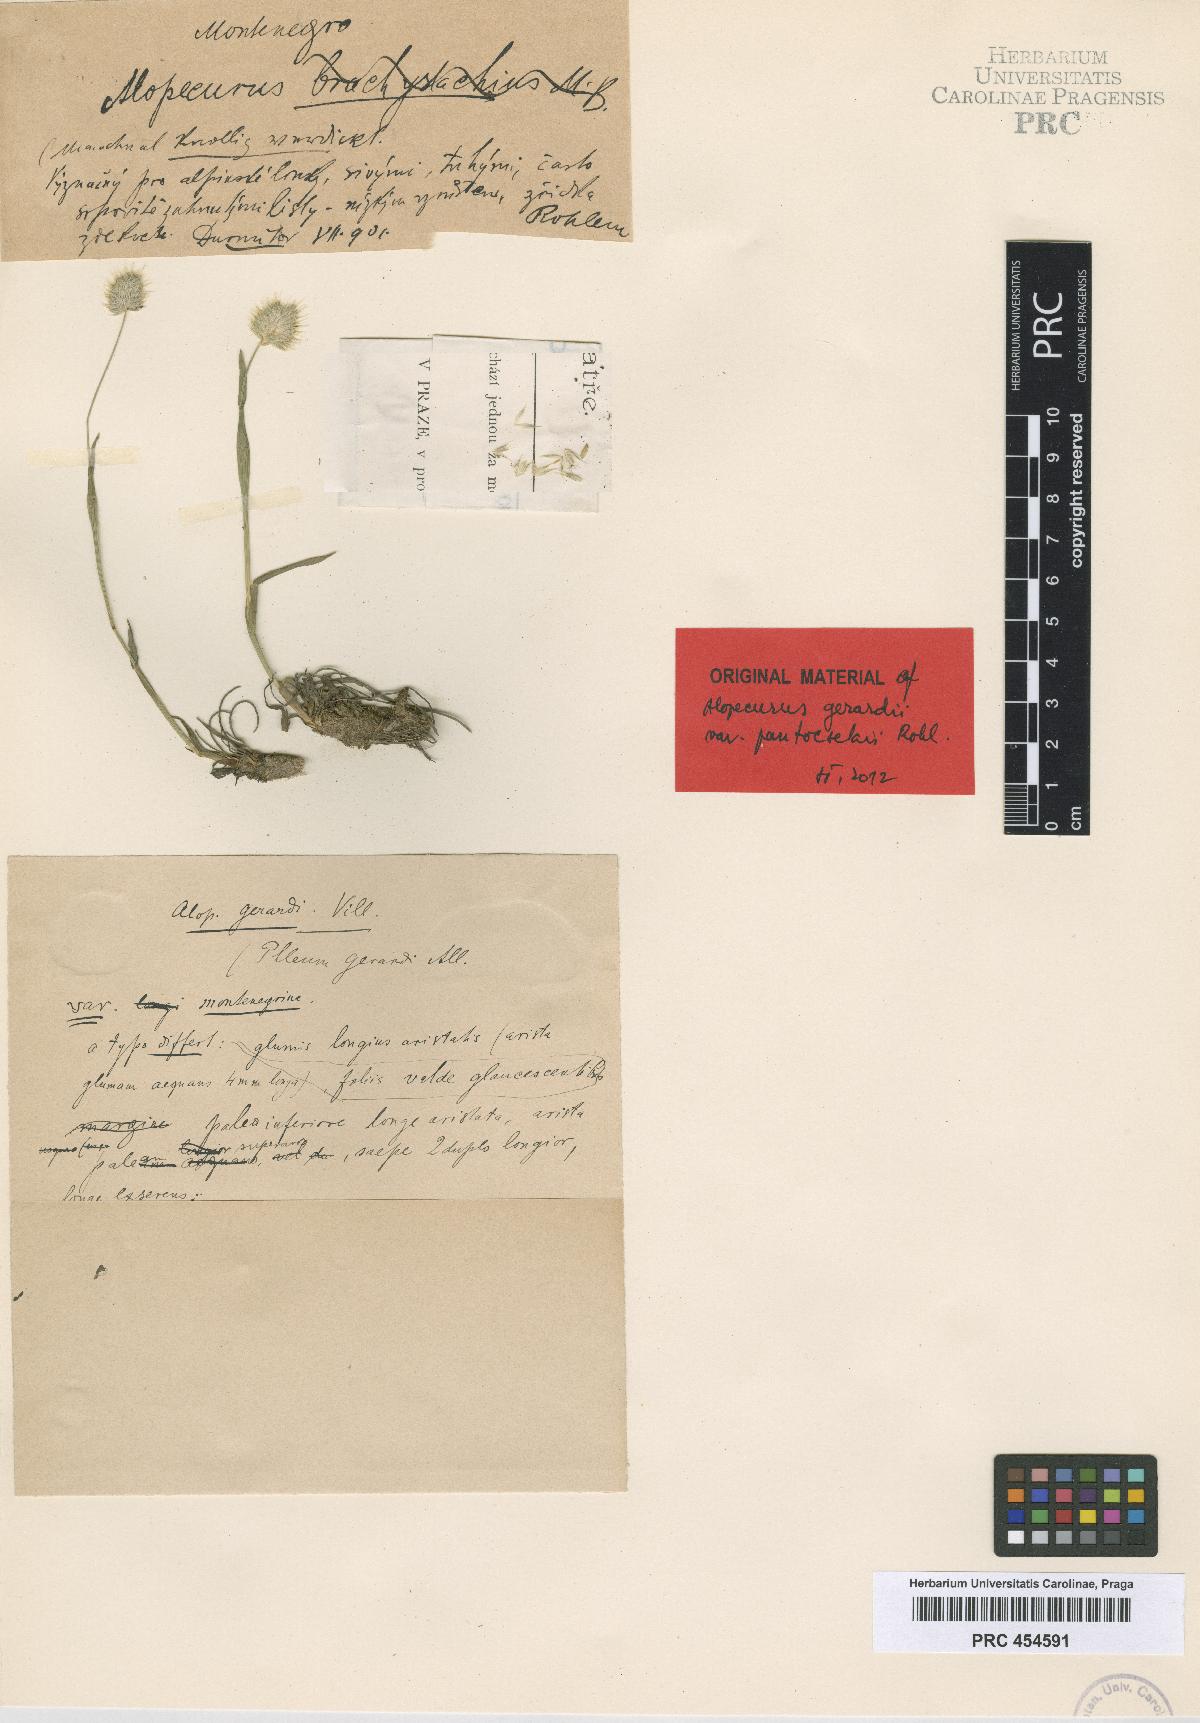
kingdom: Plantae
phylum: Tracheophyta
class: Liliopsida
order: Poales
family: Poaceae
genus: Alopecurus
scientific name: Alopecurus gerardii
